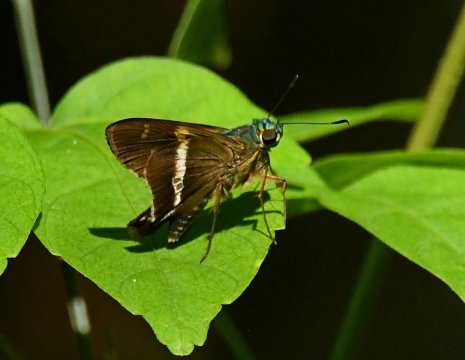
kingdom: Animalia
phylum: Arthropoda
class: Insecta
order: Lepidoptera
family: Hesperiidae
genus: Niconiades
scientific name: Niconiades incomptus
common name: Half-tailed Skipper
